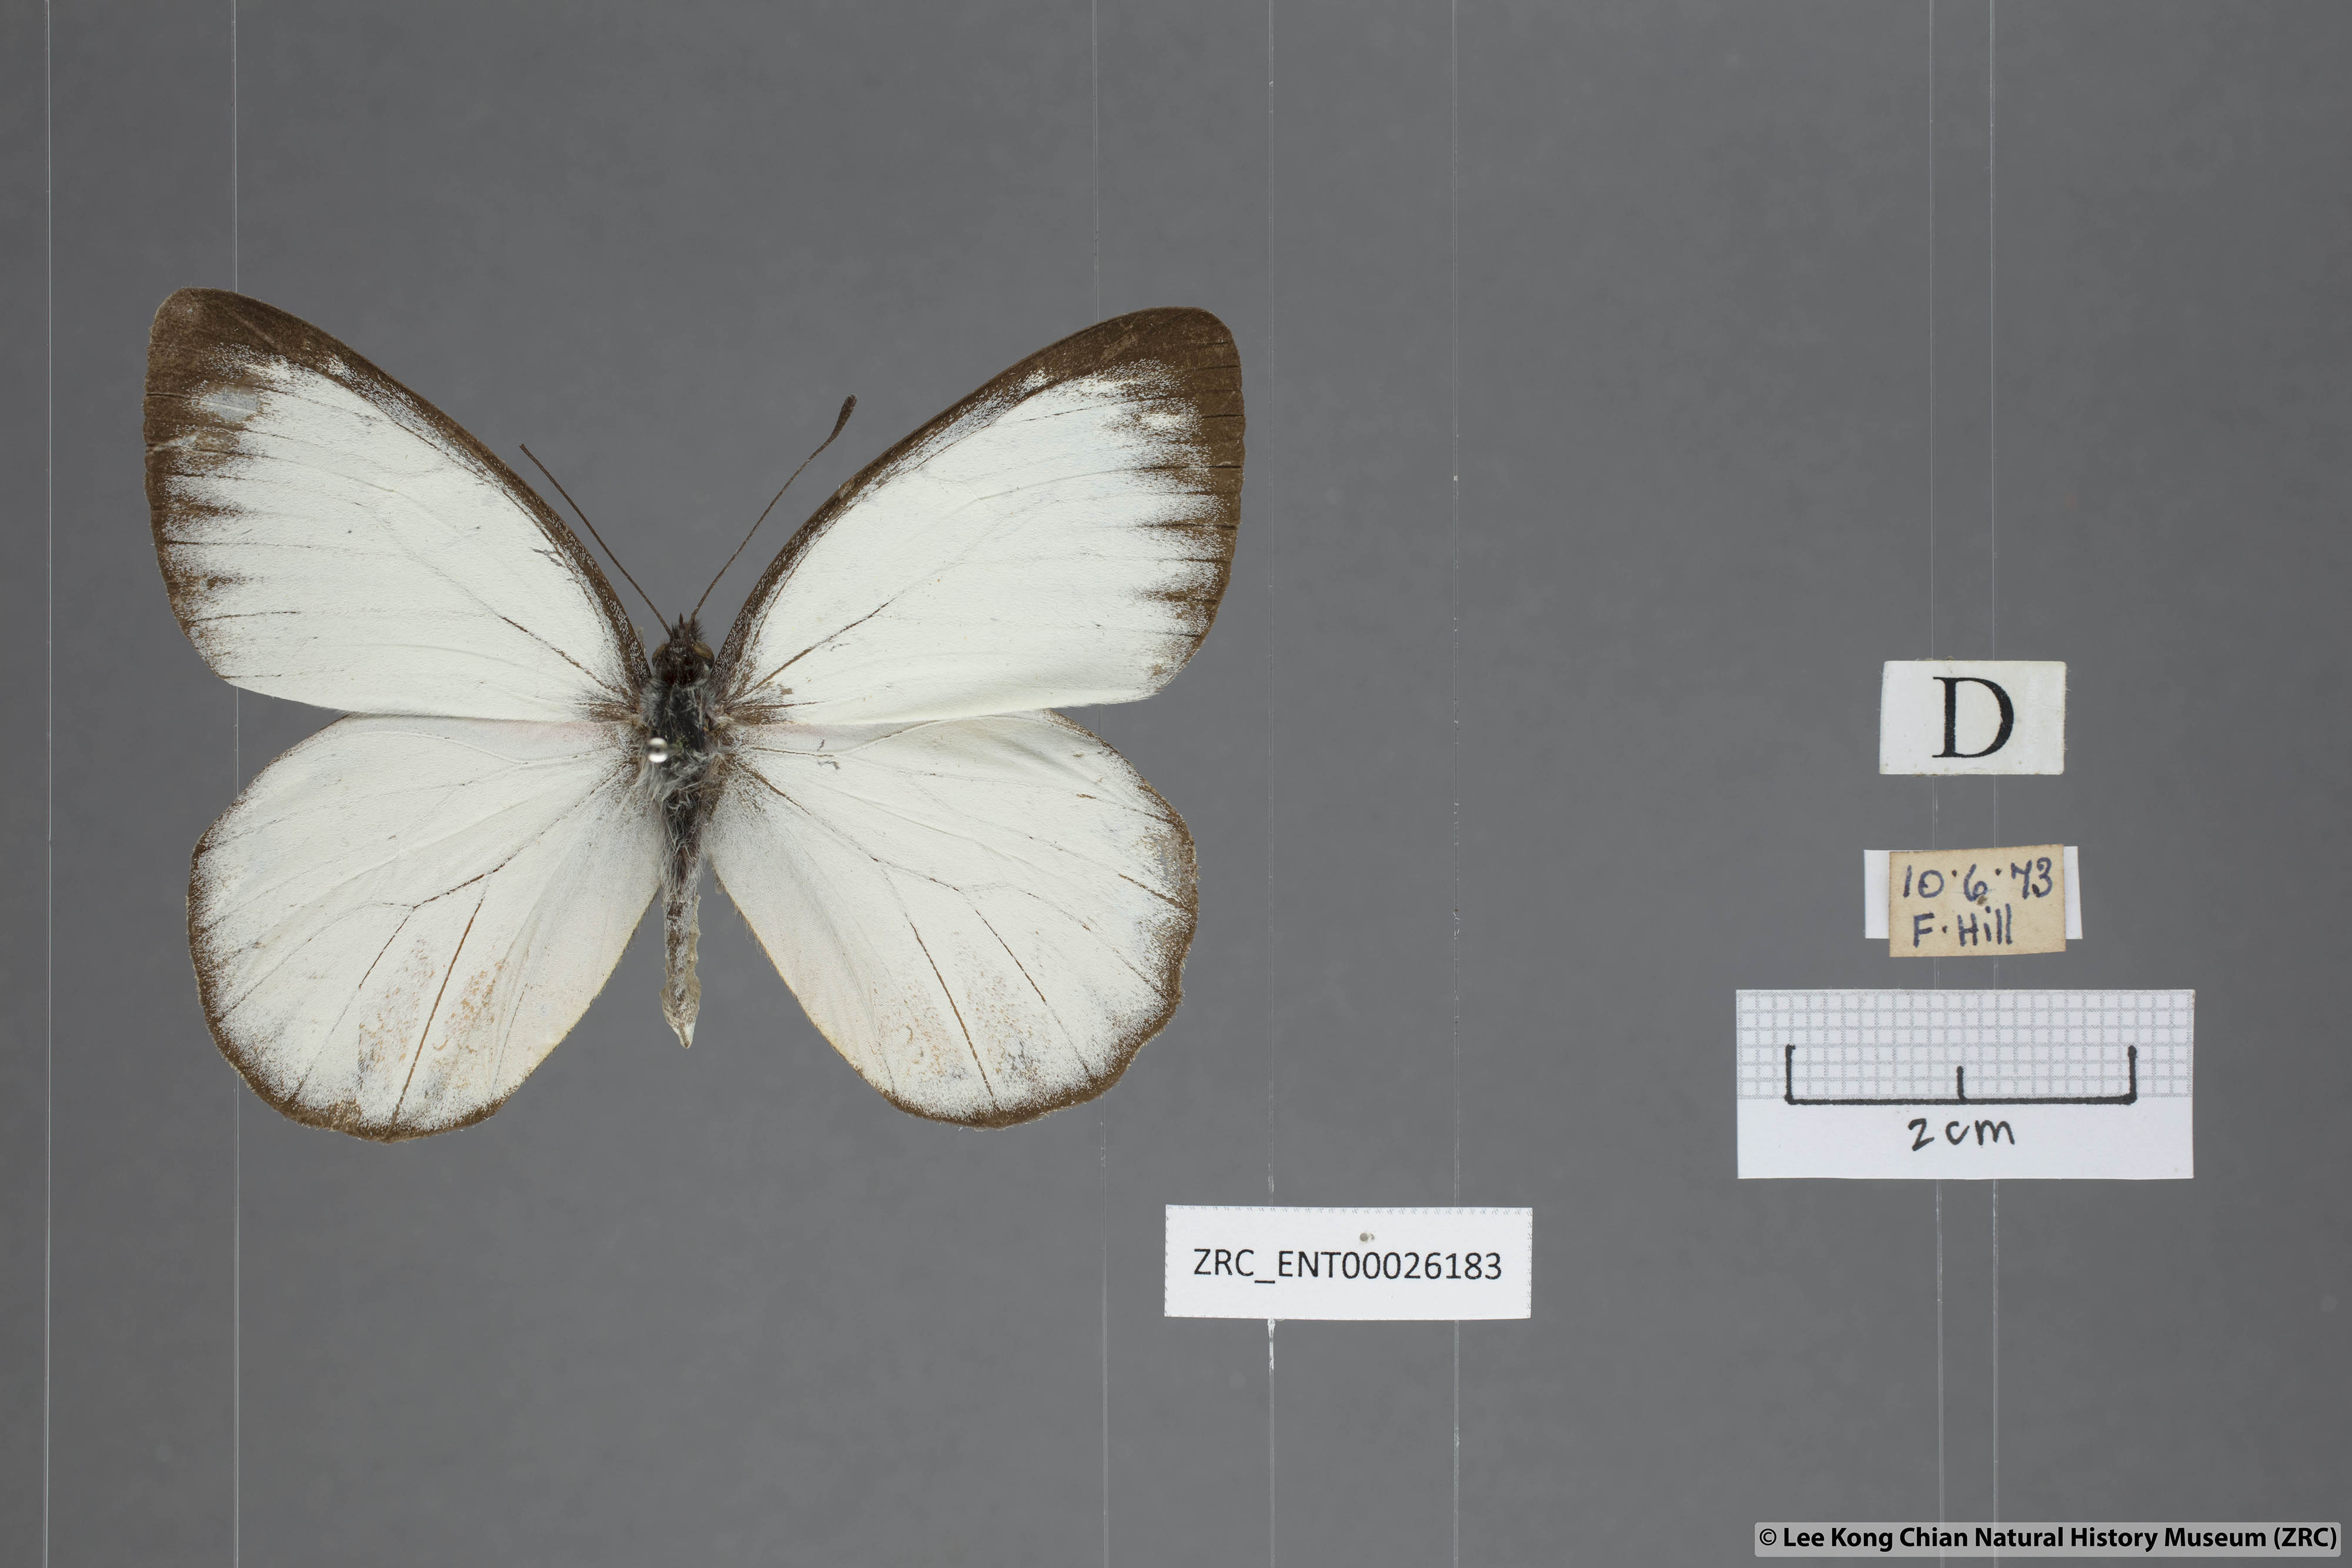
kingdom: Animalia
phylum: Arthropoda
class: Insecta
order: Lepidoptera
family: Pieridae
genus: Delias
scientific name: Delias descombesi
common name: Red-spot jezebel
